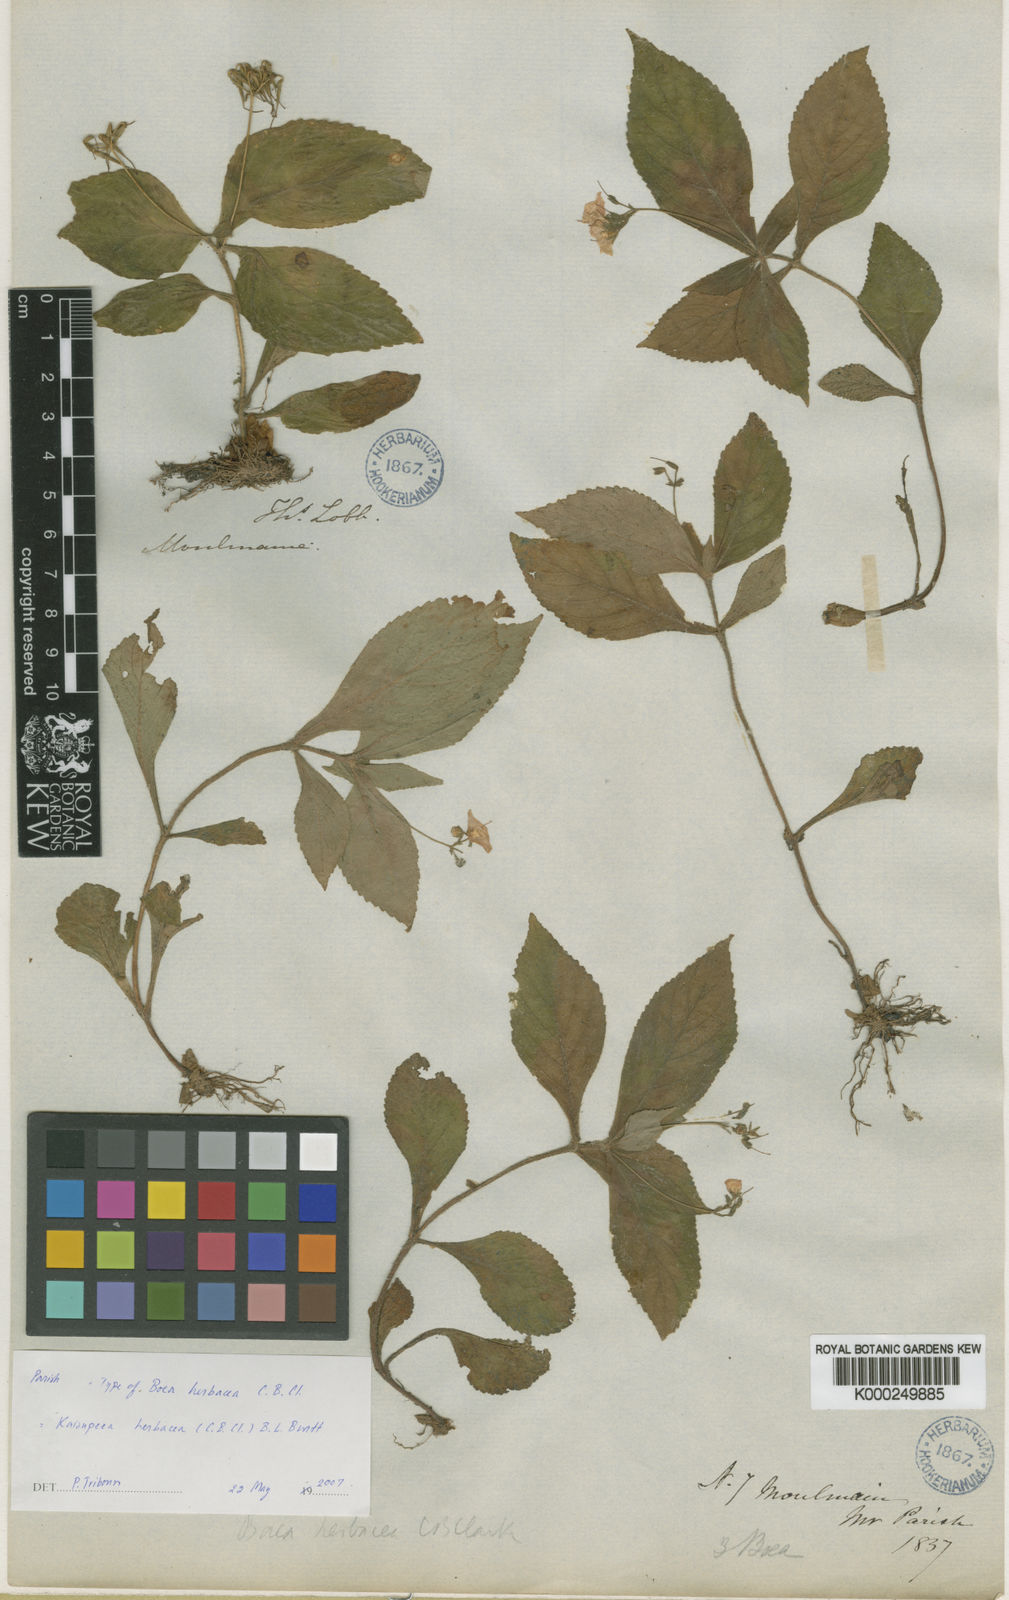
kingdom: Plantae
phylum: Tracheophyta
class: Magnoliopsida
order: Lamiales
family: Gesneriaceae
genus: Kaisupeea
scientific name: Kaisupeea herbacea
